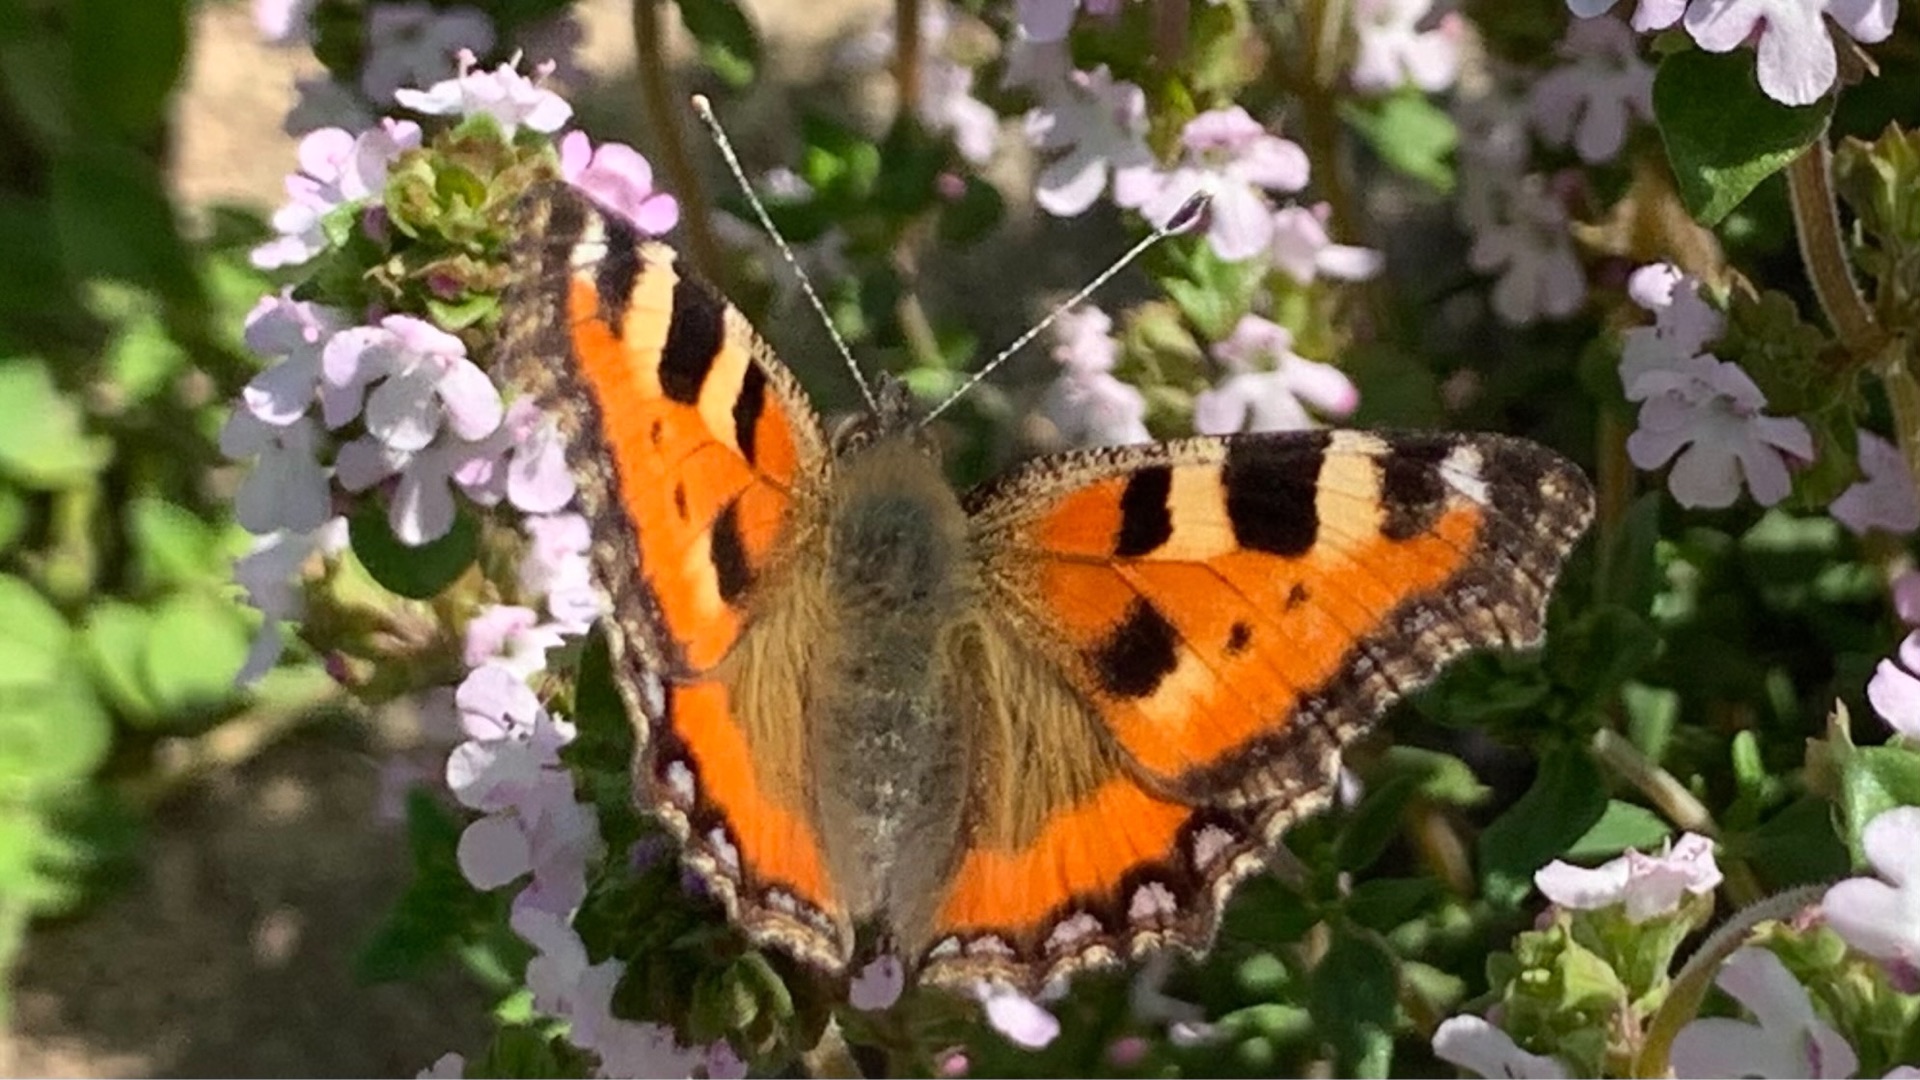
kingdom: Animalia
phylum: Arthropoda
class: Insecta
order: Lepidoptera
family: Nymphalidae
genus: Aglais
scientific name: Aglais urticae
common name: Nældens takvinge
